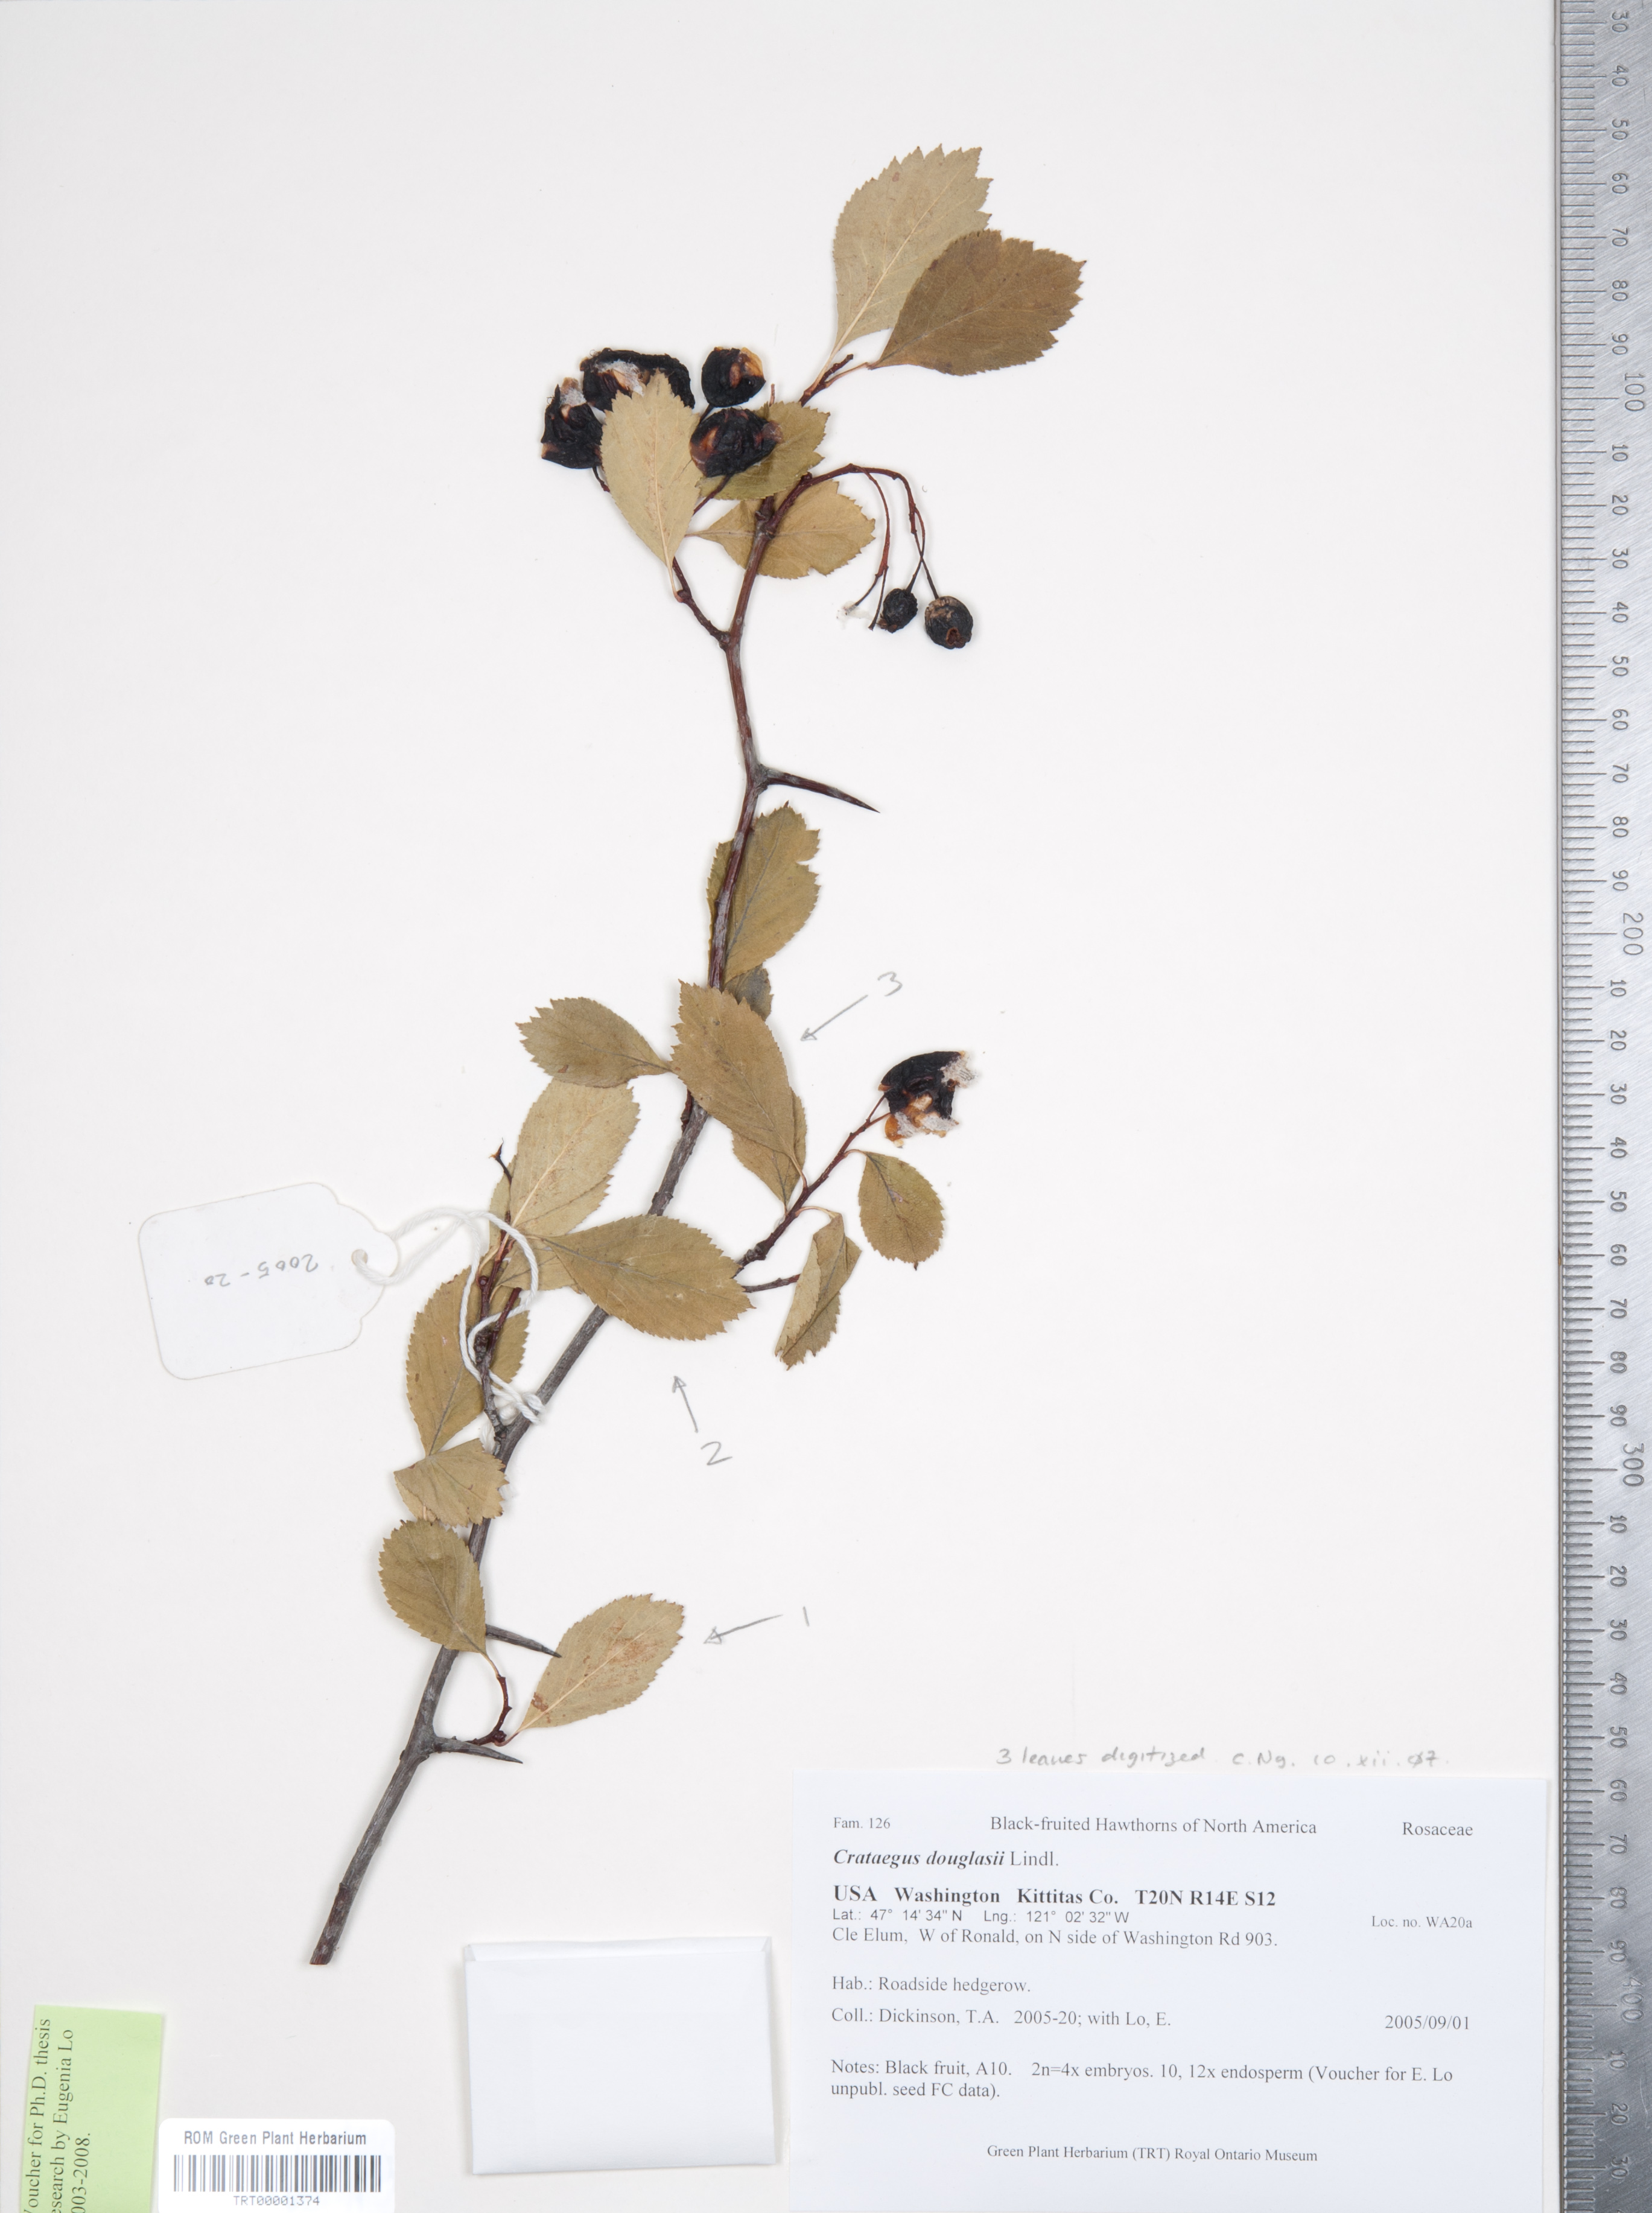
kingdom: Plantae
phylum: Tracheophyta
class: Magnoliopsida
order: Rosales
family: Rosaceae
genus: Crataegus
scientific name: Crataegus douglasii
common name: Black hawthorn
